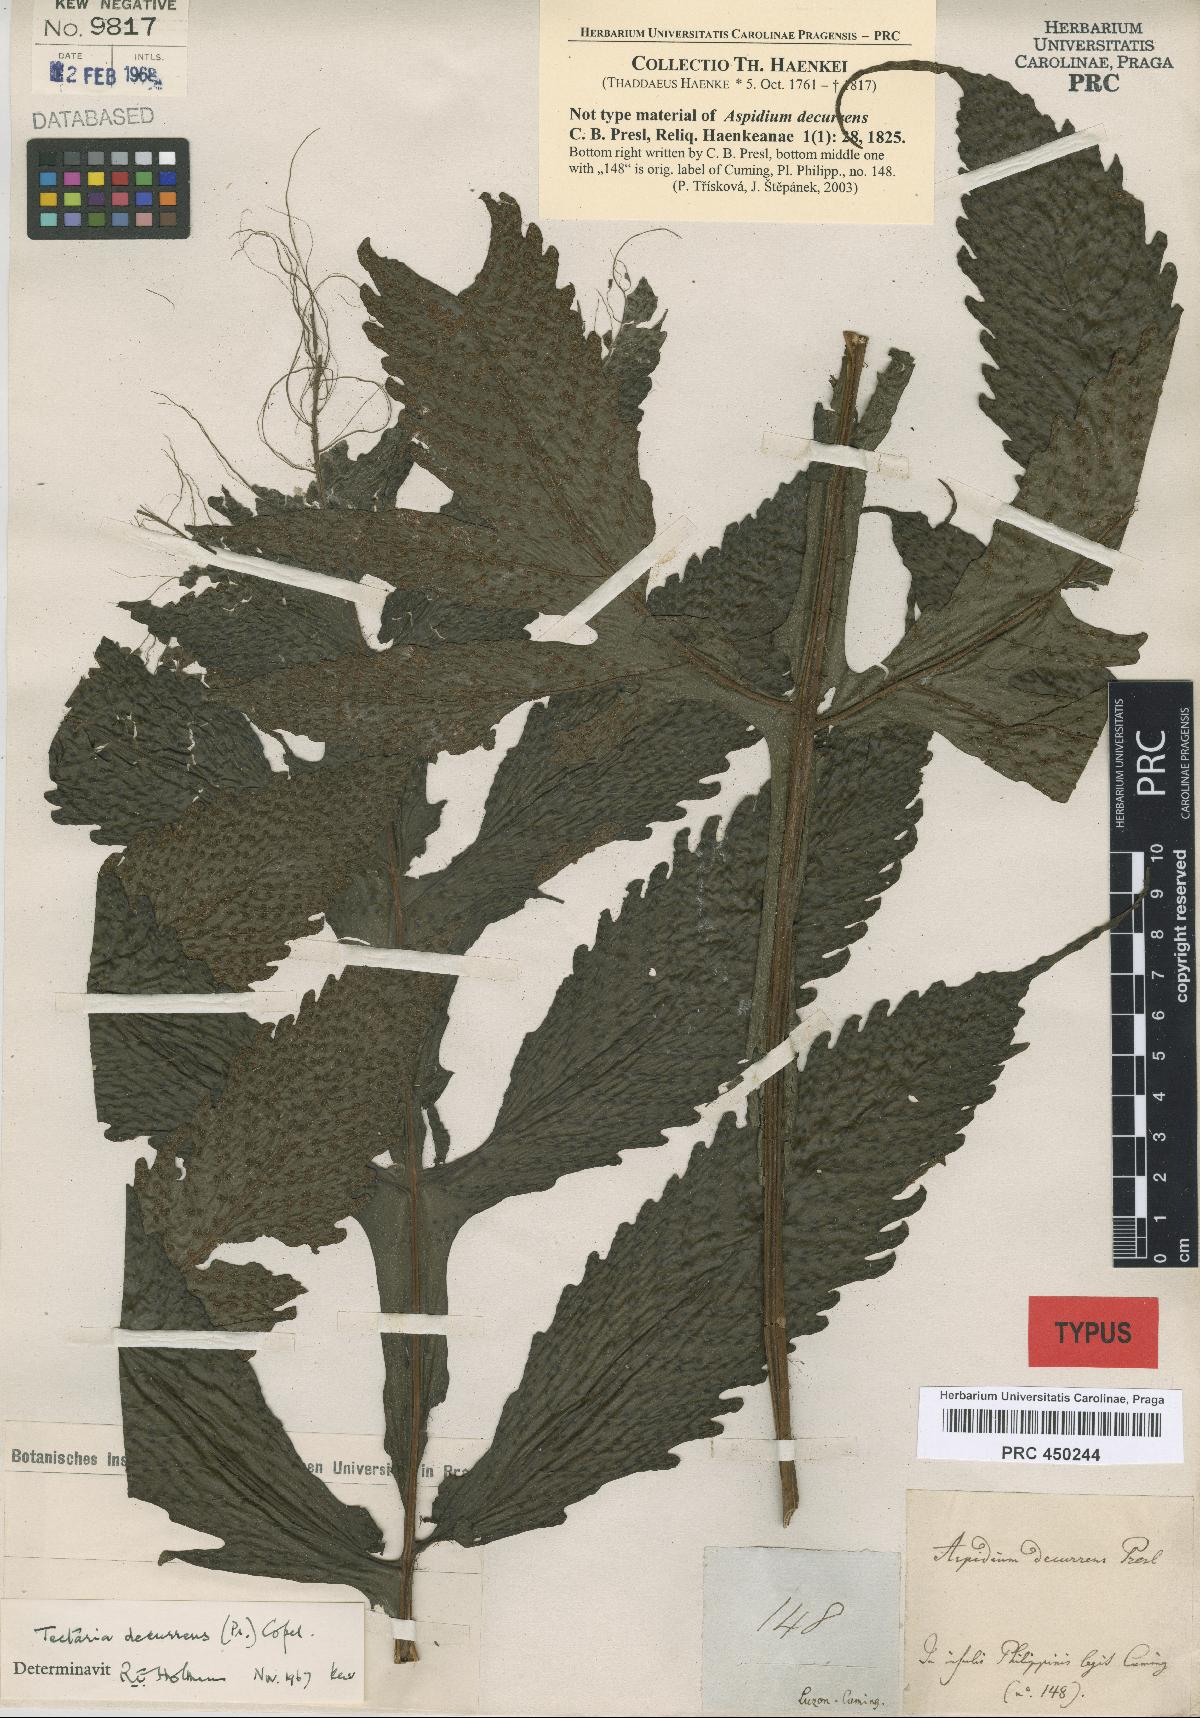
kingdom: Plantae
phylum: Tracheophyta
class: Polypodiopsida
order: Polypodiales
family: Tectariaceae
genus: Tectaria
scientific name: Tectaria decurrens
